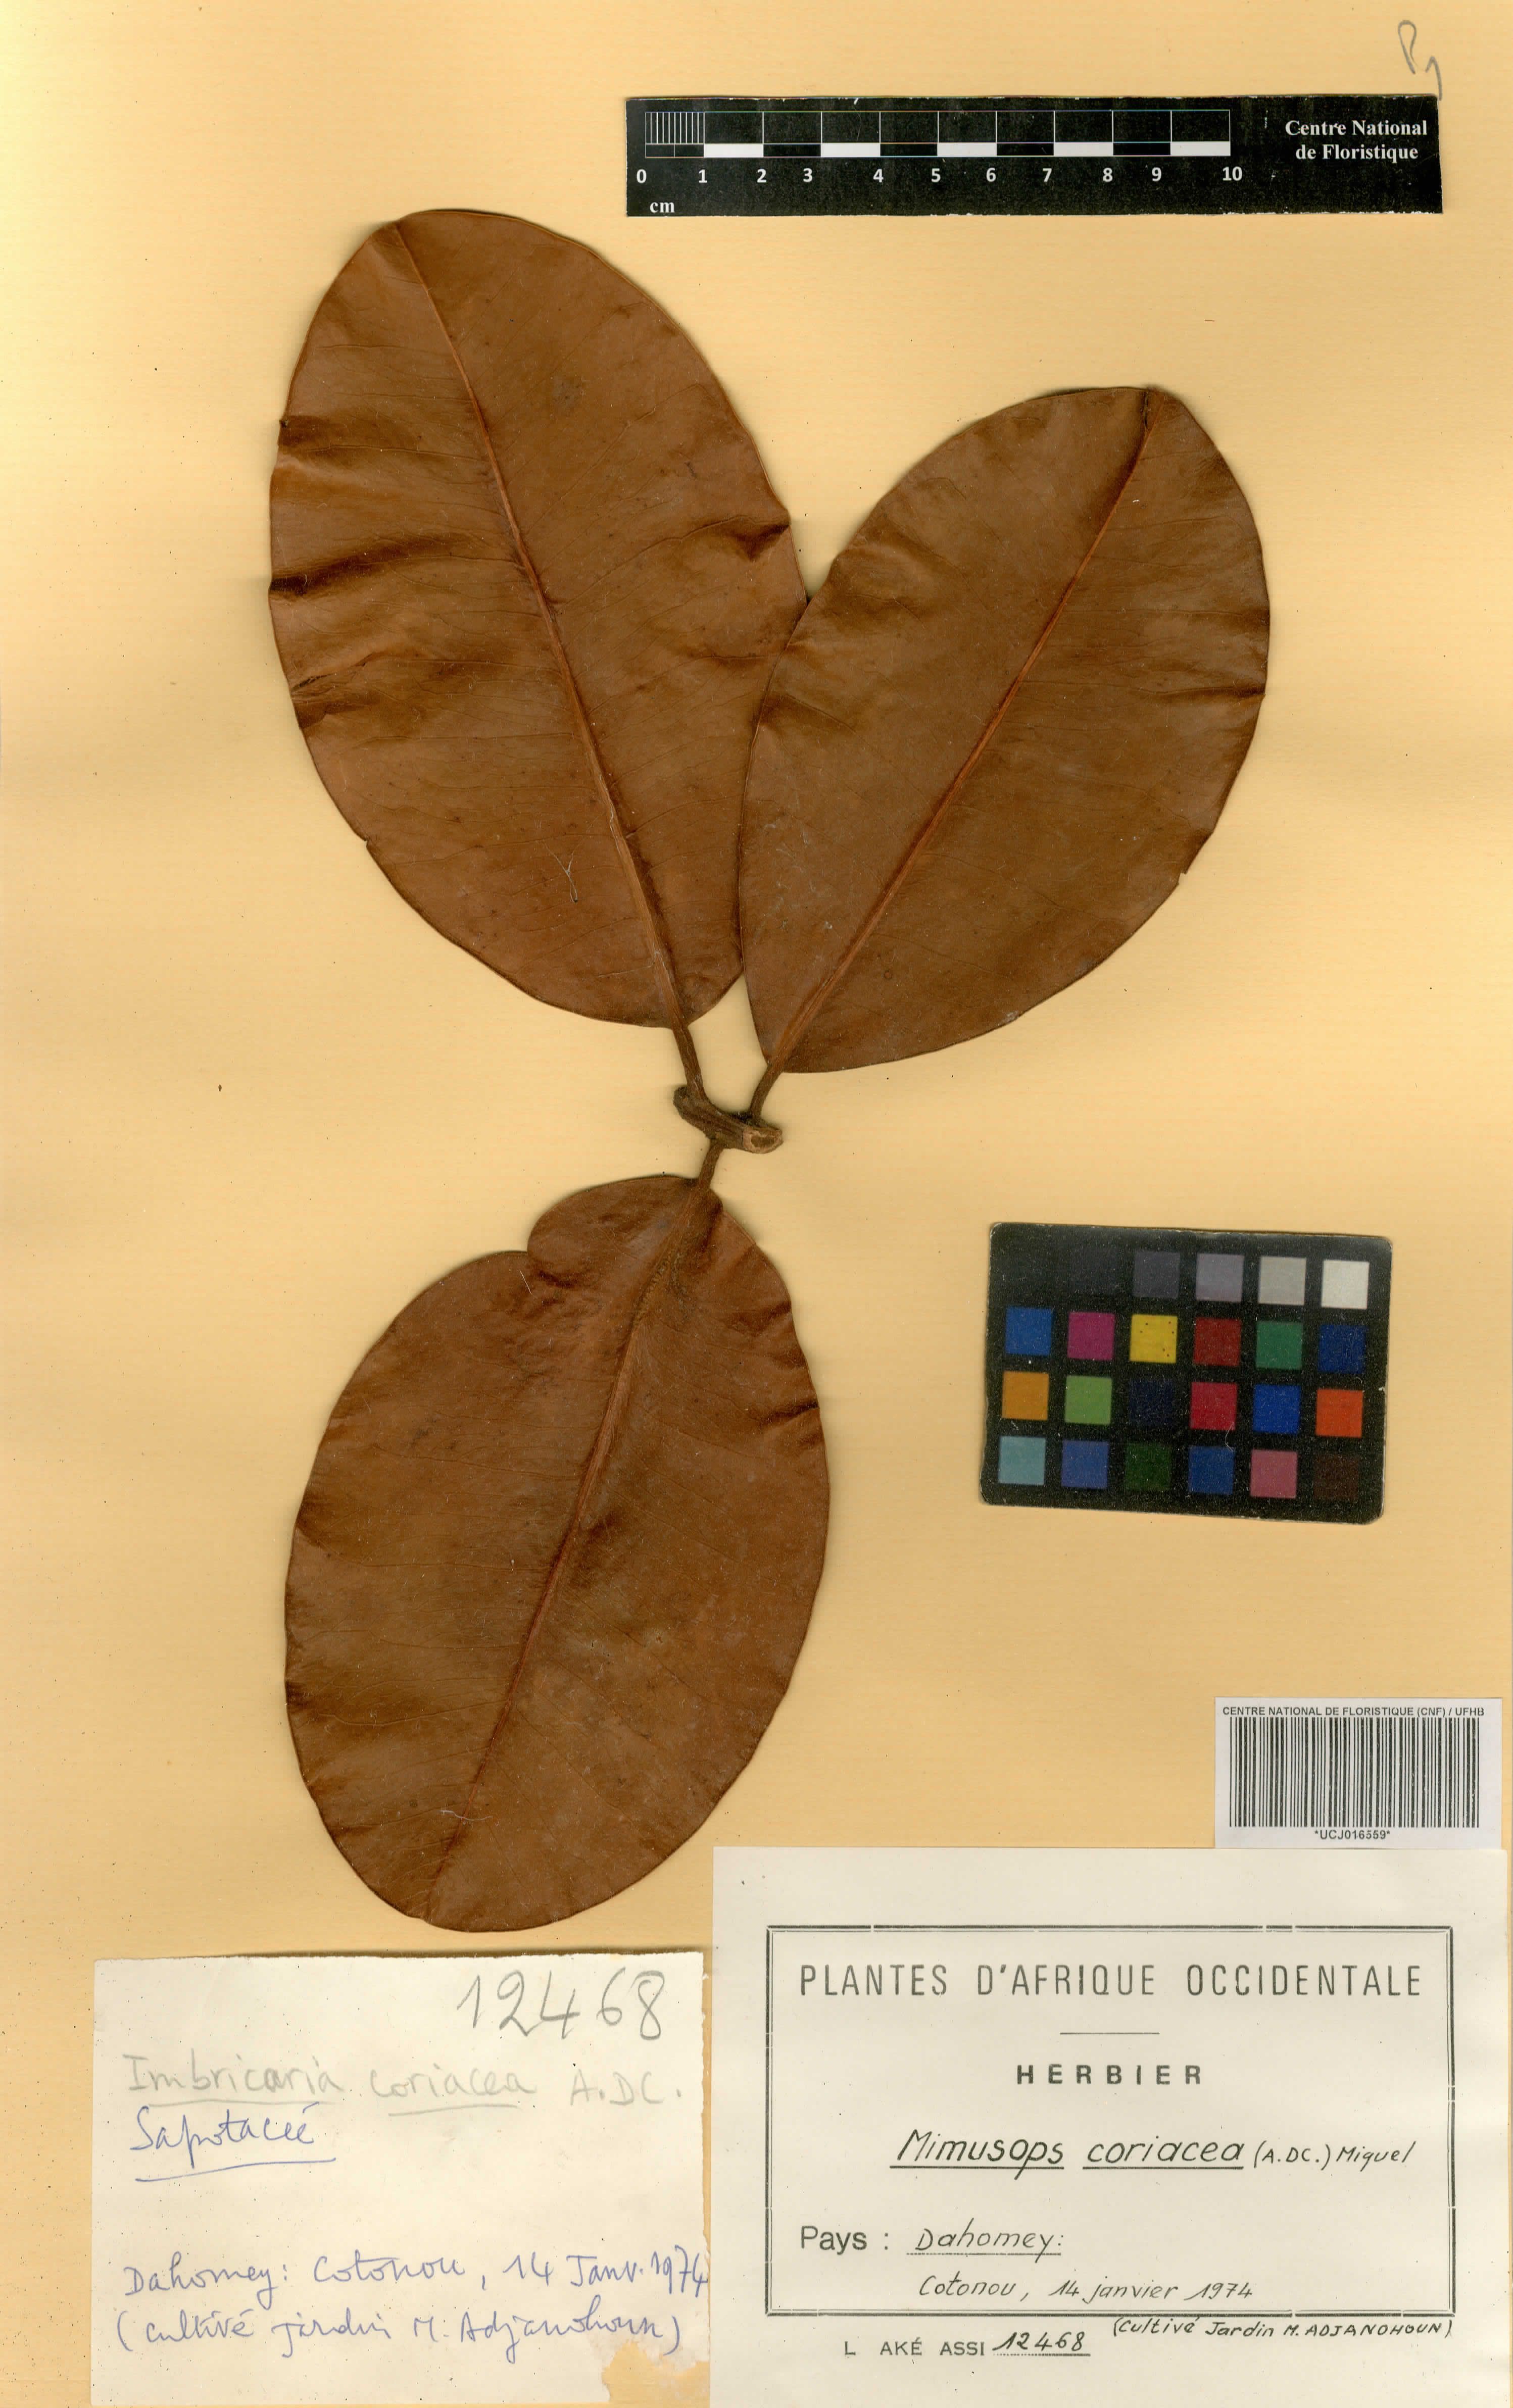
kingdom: Plantae
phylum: Tracheophyta
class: Magnoliopsida
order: Ericales
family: Sapotaceae
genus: Mimusops
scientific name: Mimusops coriacea
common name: Mimusops
